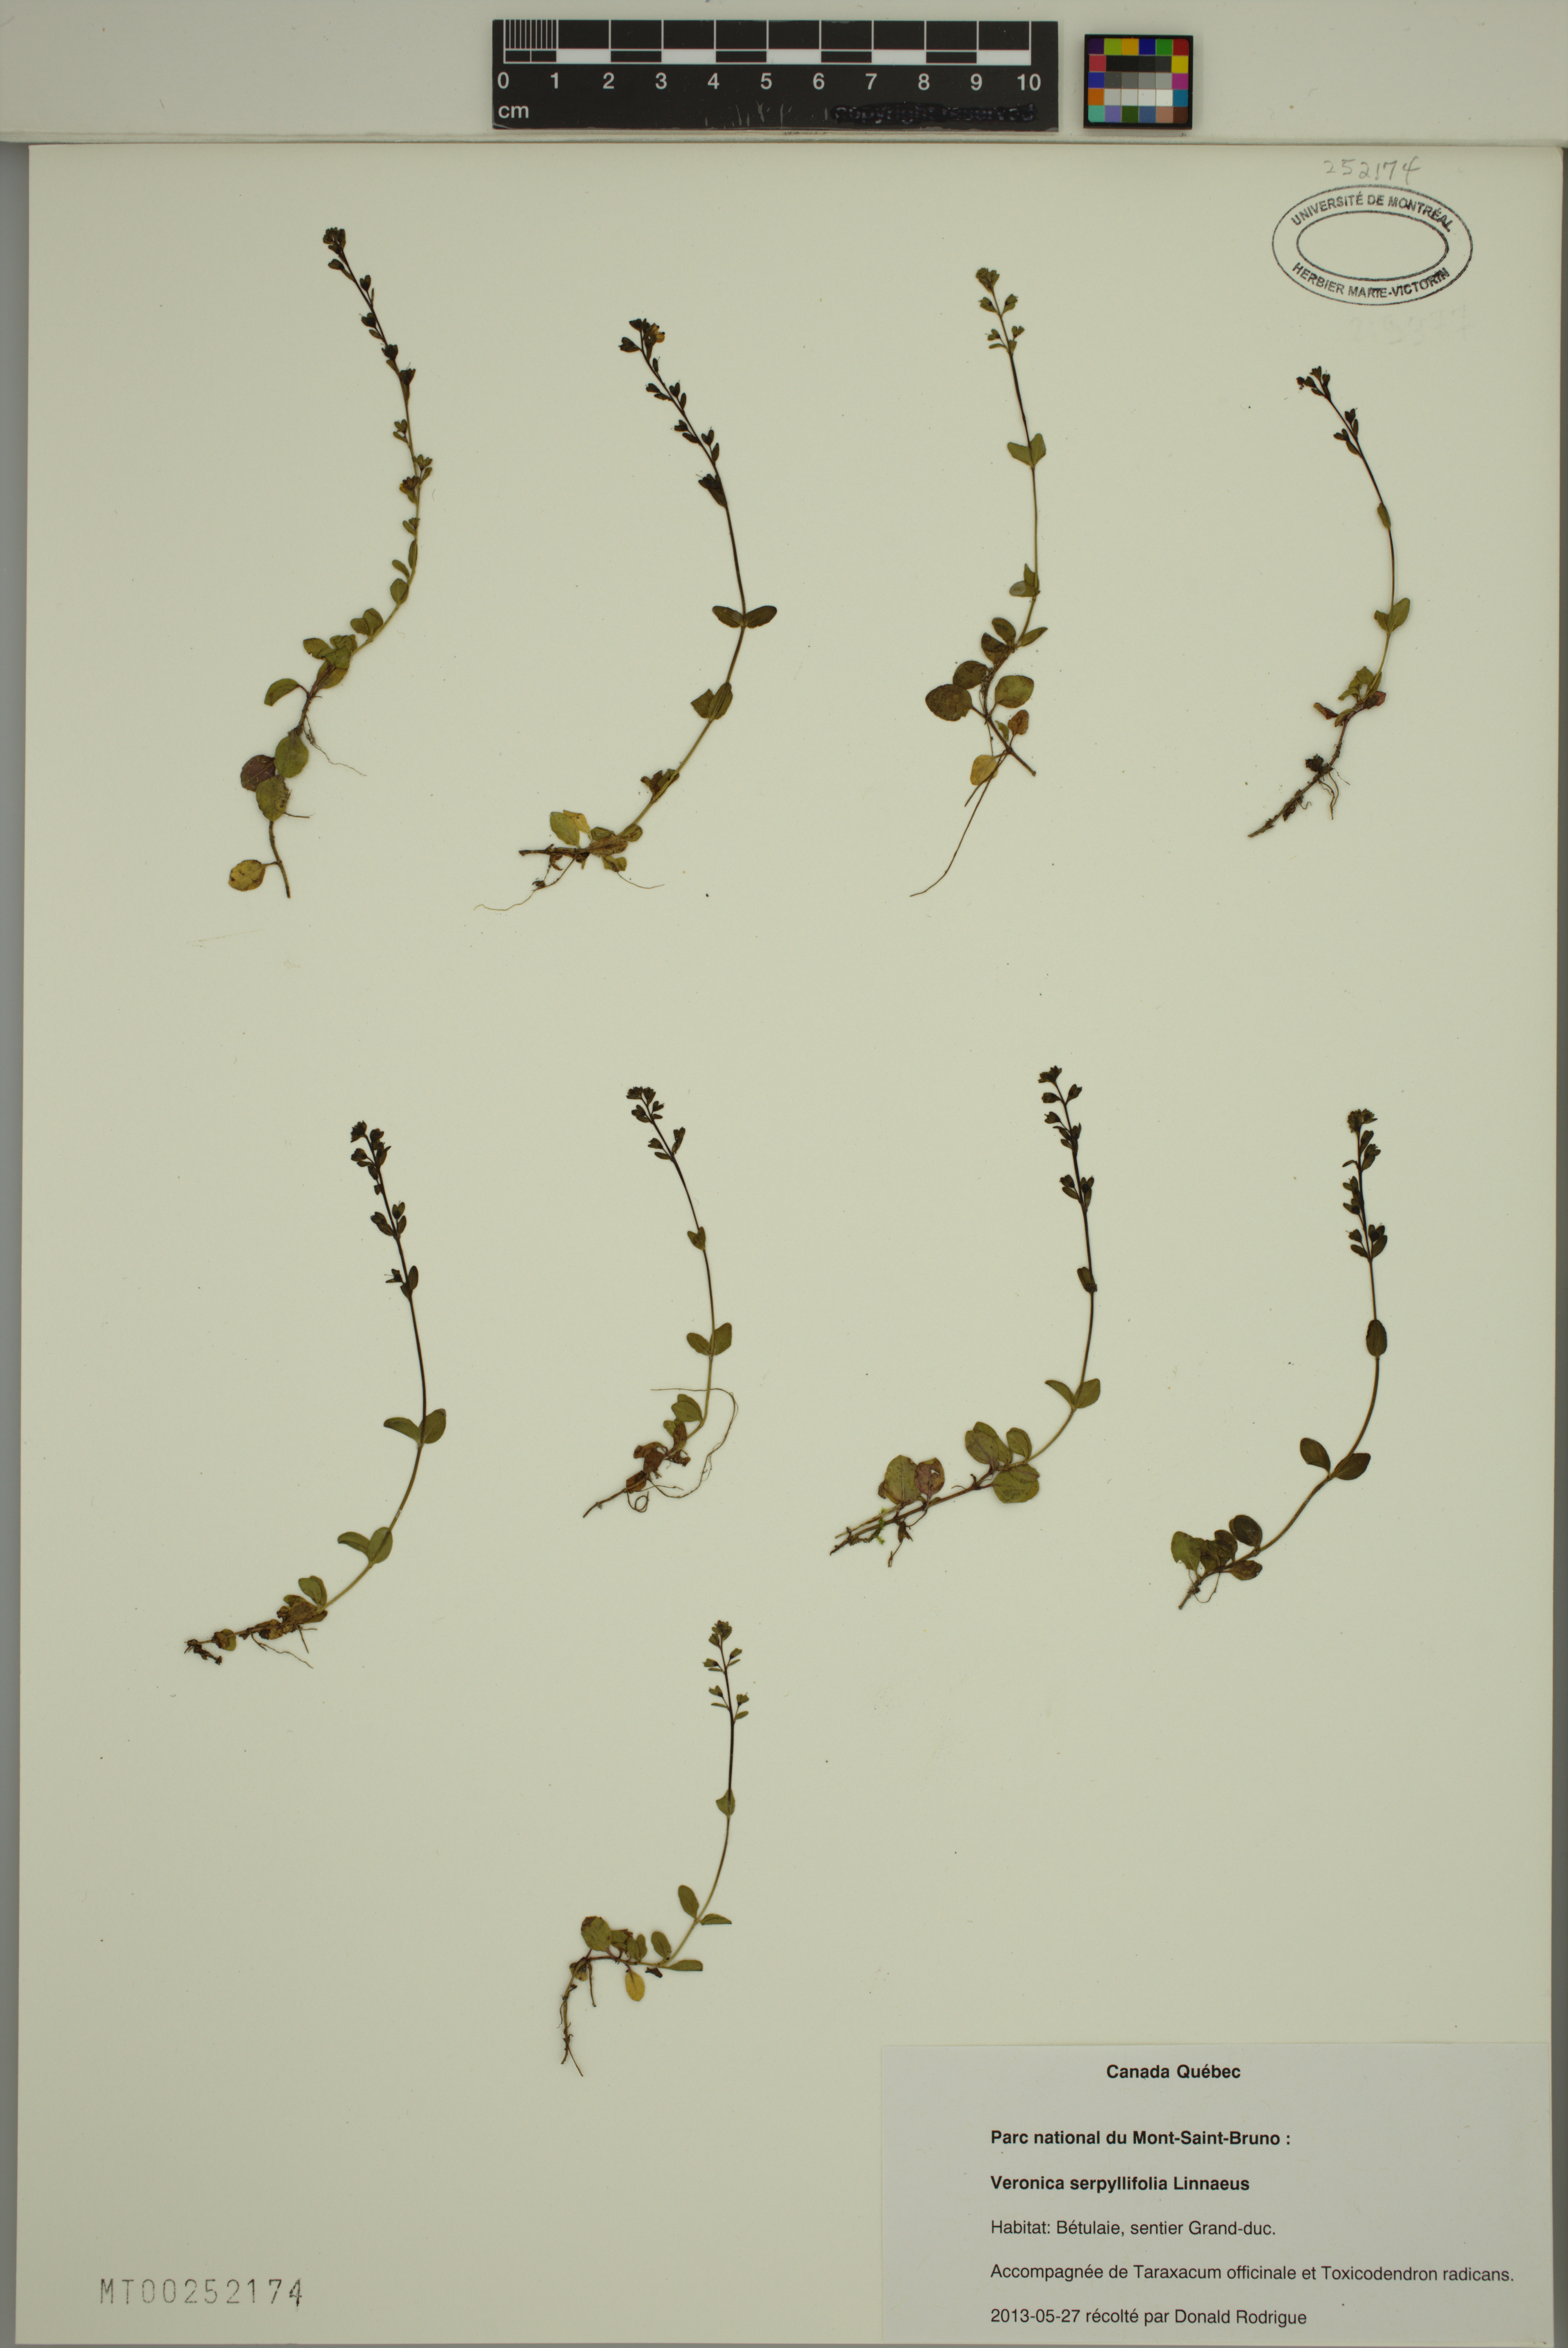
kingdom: Plantae
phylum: Tracheophyta
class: Magnoliopsida
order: Lamiales
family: Plantaginaceae
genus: Veronica
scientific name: Veronica serpyllifolia
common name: Thyme-leaved speedwell
